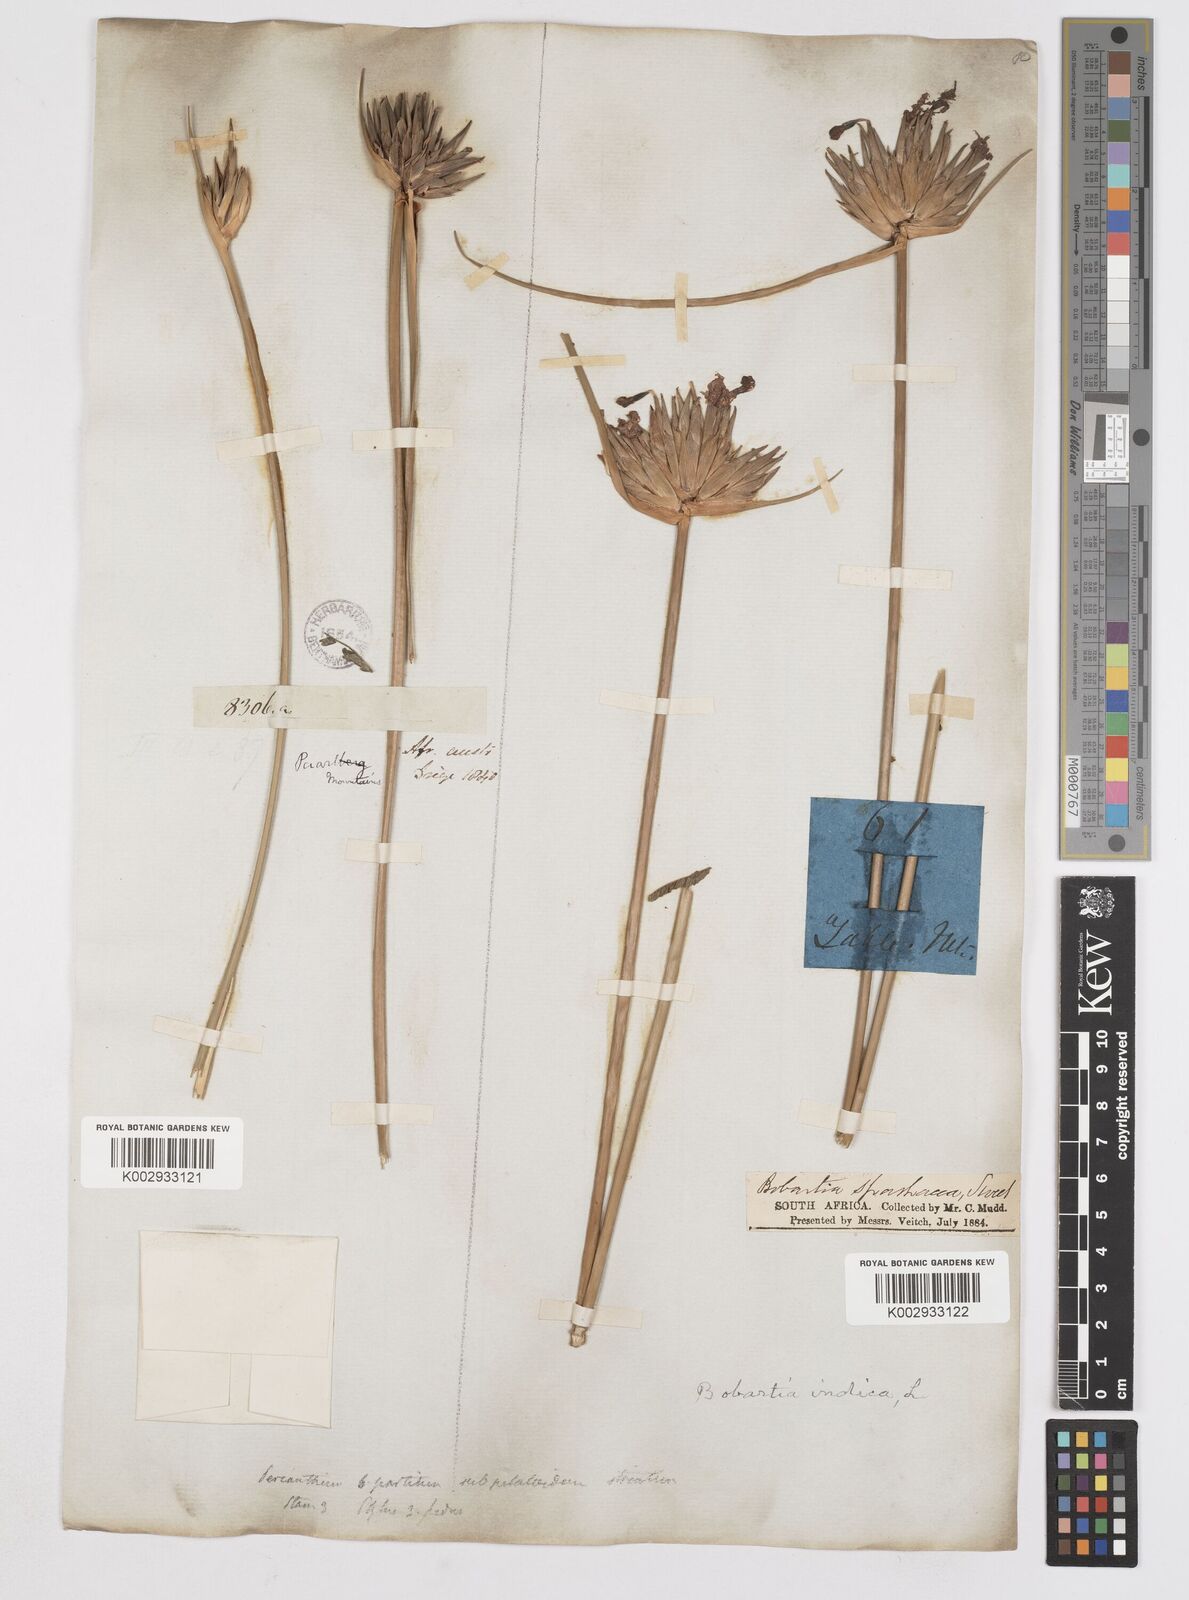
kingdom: Plantae
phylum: Tracheophyta
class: Liliopsida
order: Asparagales
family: Iridaceae
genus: Bobartia
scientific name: Bobartia indica
